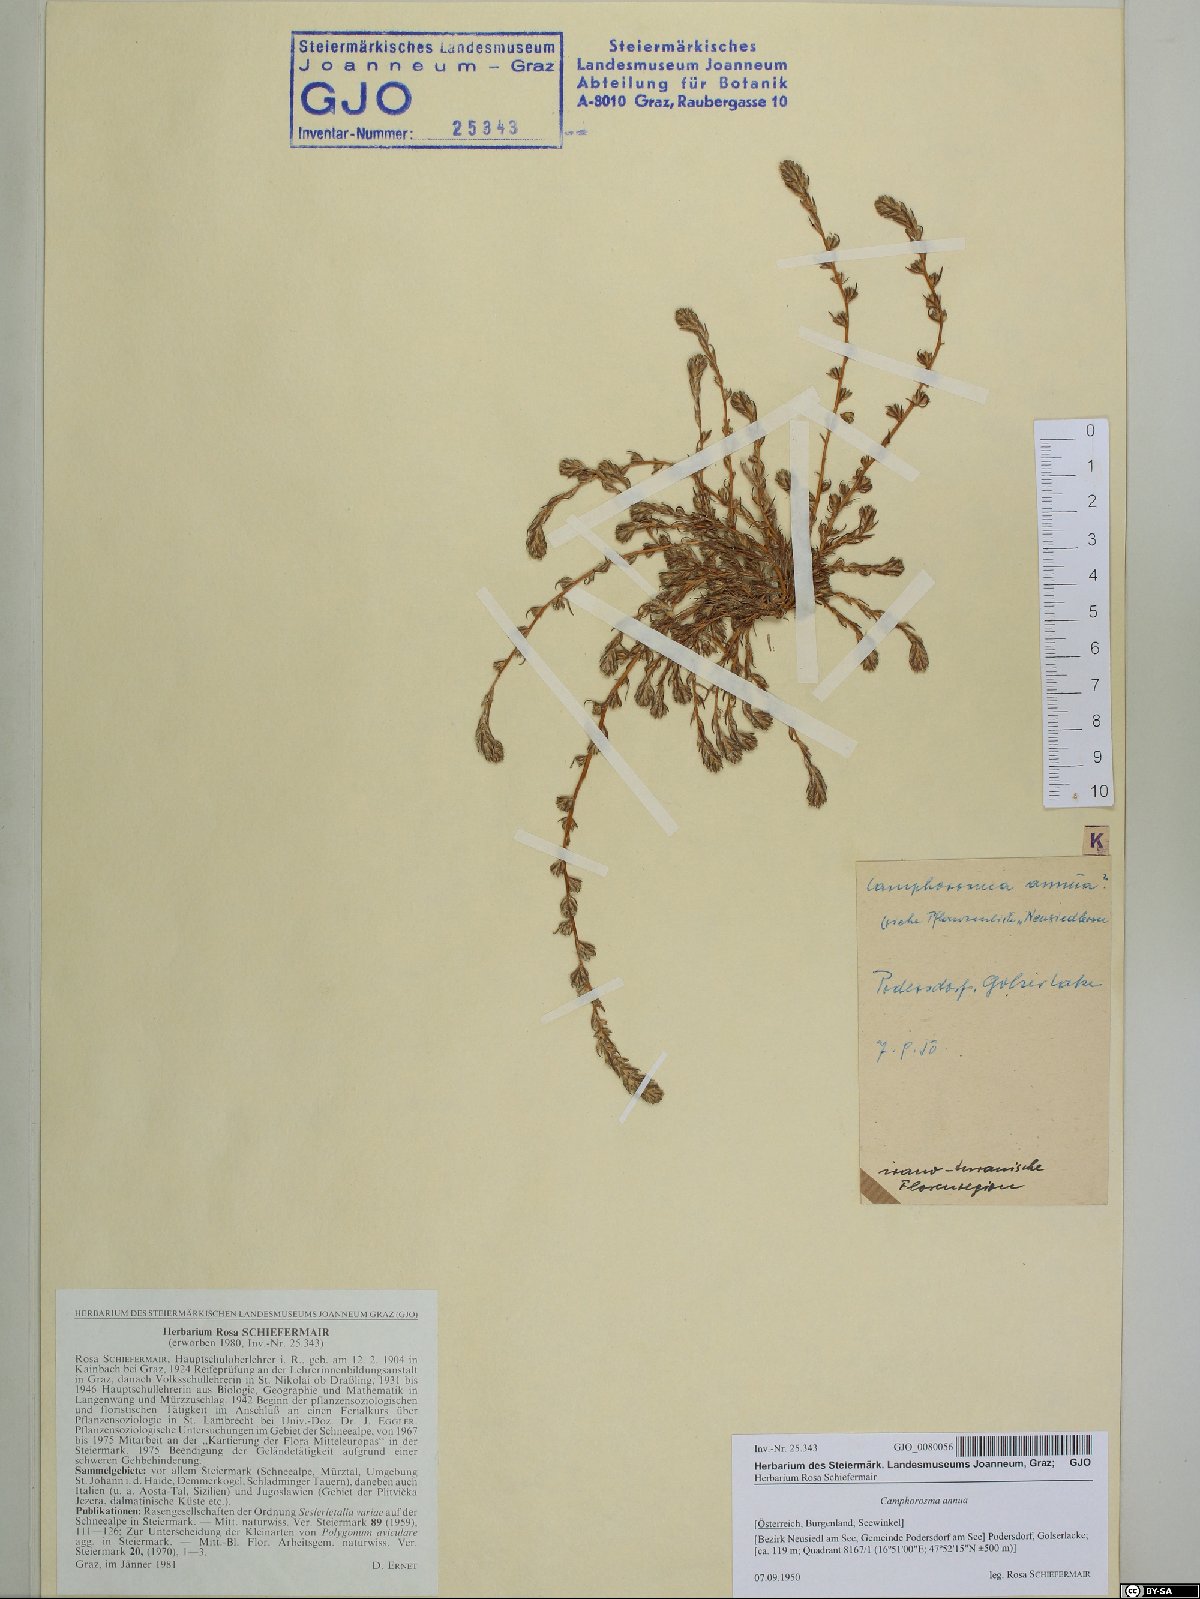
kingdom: Plantae
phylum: Tracheophyta
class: Magnoliopsida
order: Caryophyllales
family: Amaranthaceae
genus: Camphorosma
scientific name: Camphorosma annua
